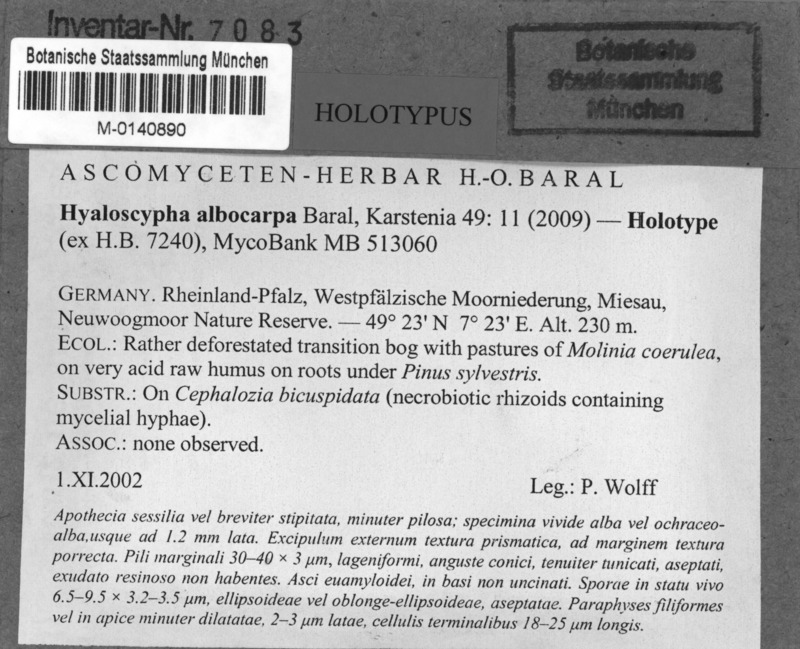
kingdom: Fungi
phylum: Ascomycota
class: Leotiomycetes
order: Helotiales
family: Hyaloscyphaceae
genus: Hyaloscypha
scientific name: Hyaloscypha albocarpa
